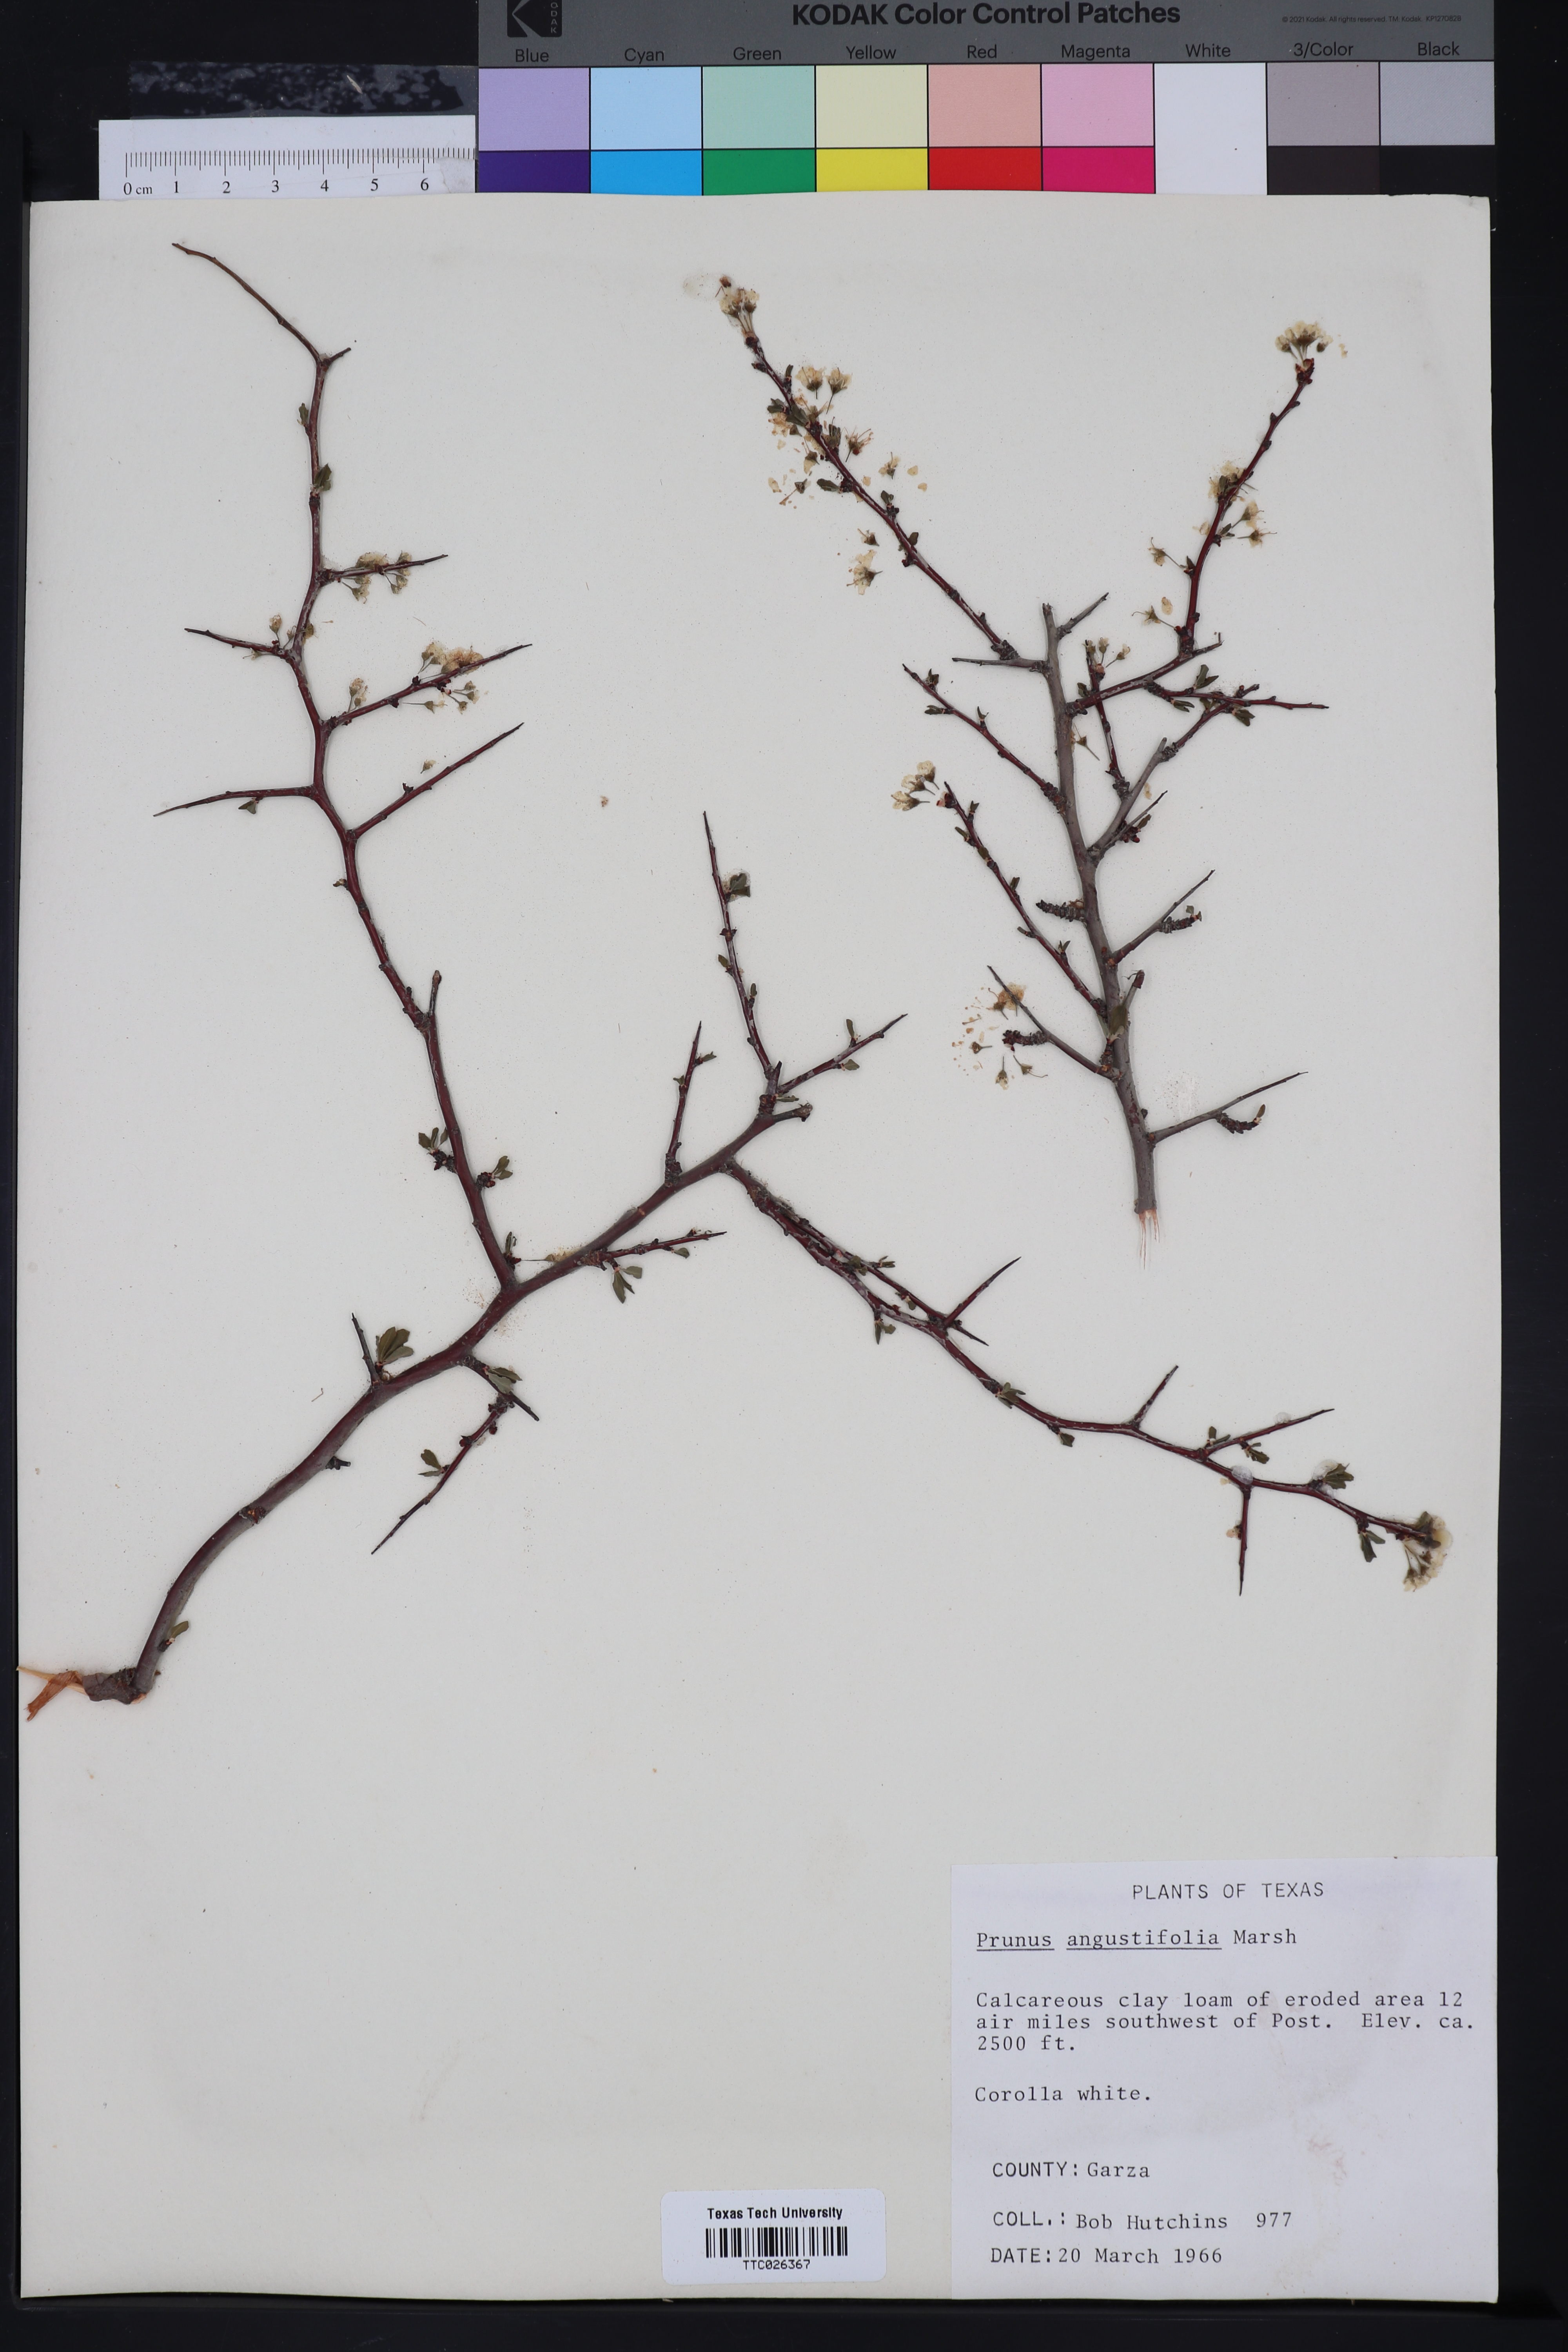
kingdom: Plantae
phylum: Tracheophyta
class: Magnoliopsida
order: Rosales
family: Rosaceae
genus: Prunus
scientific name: Prunus angustifolia
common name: Cherokee plum
